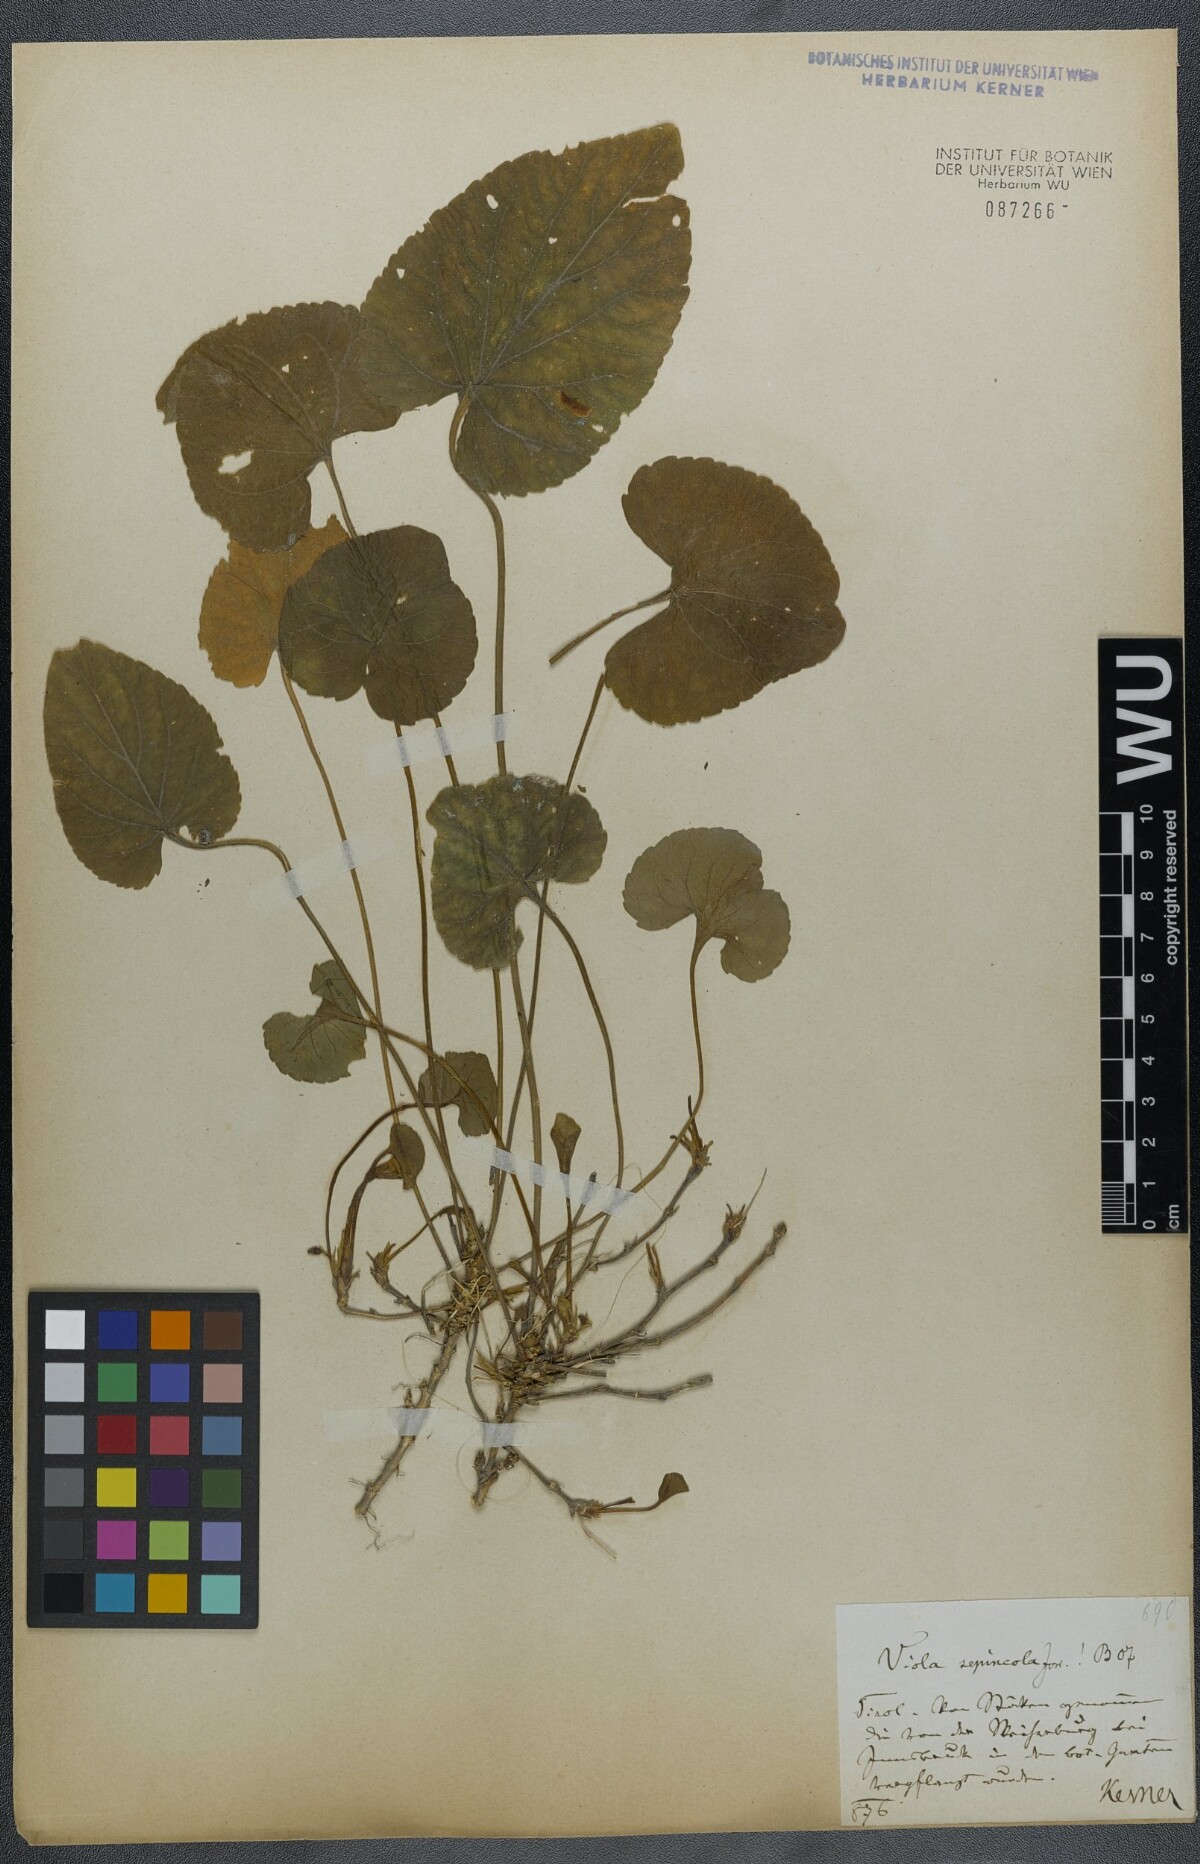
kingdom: Plantae
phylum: Tracheophyta
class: Magnoliopsida
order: Malpighiales
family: Violaceae
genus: Viola
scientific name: Viola suavis
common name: Russian violet
